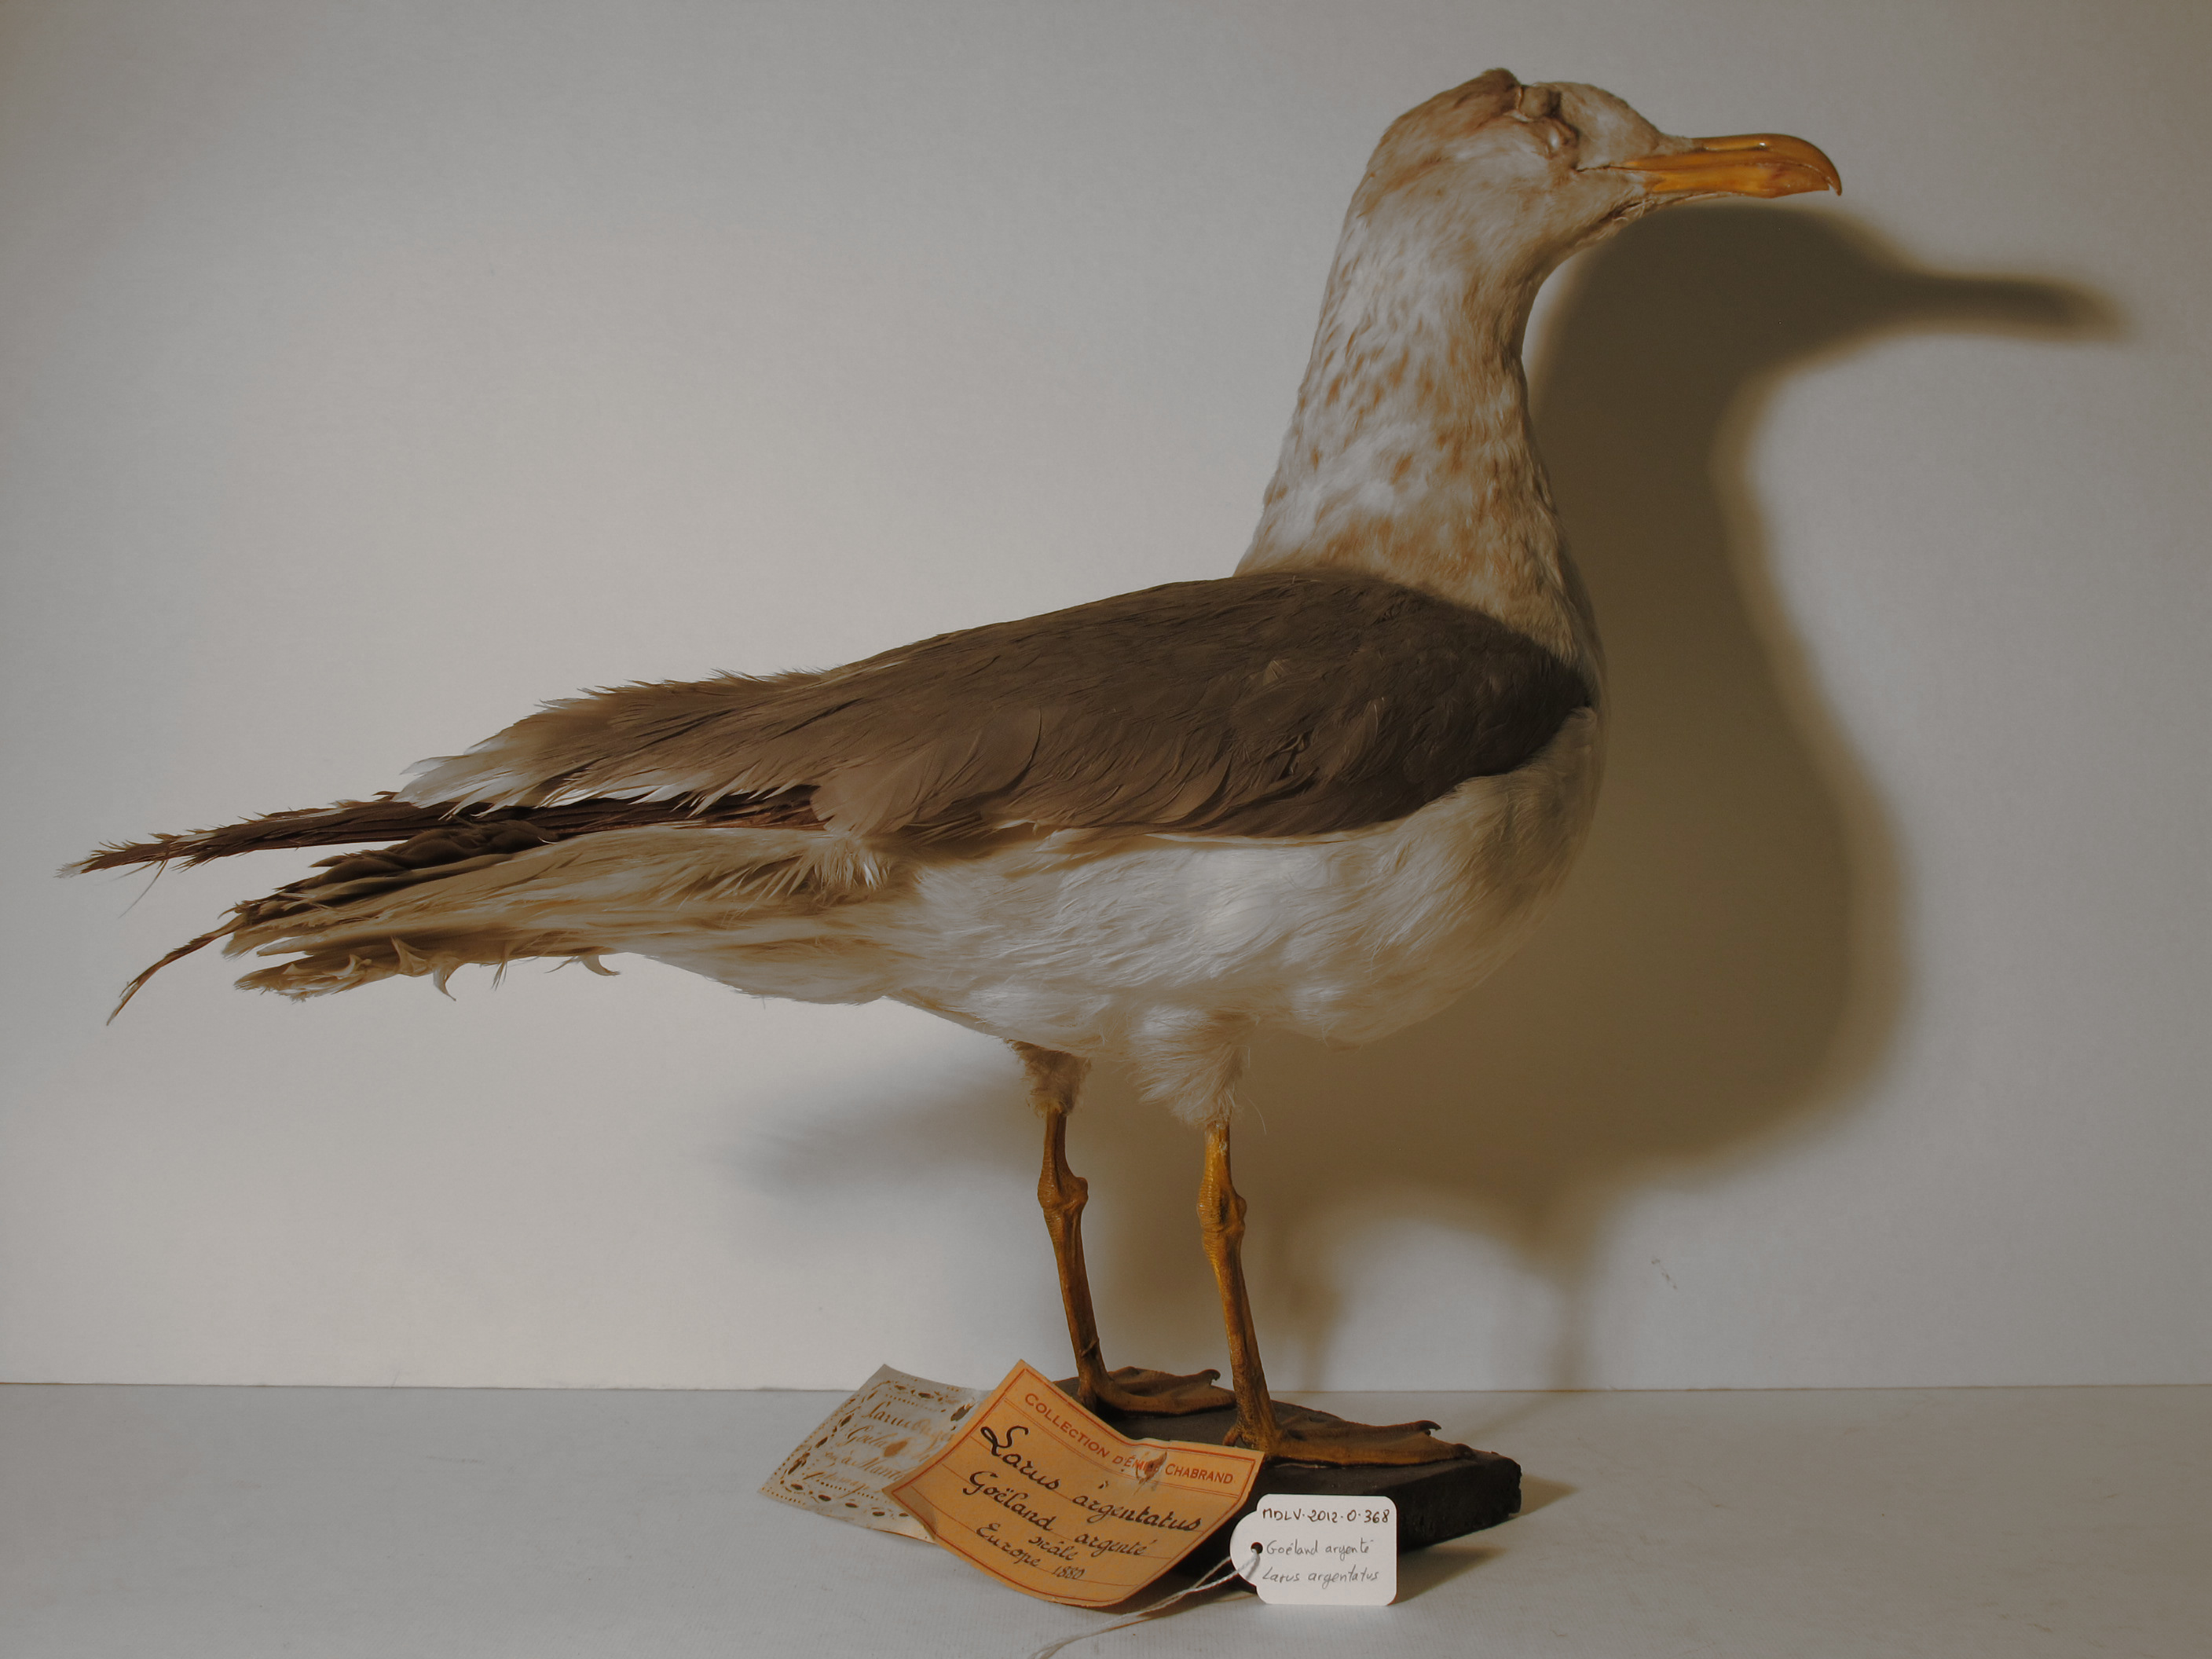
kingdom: Animalia
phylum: Chordata
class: Aves
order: Charadriiformes
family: Laridae
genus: Larus
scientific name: Larus argentatus
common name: Herring Gull
